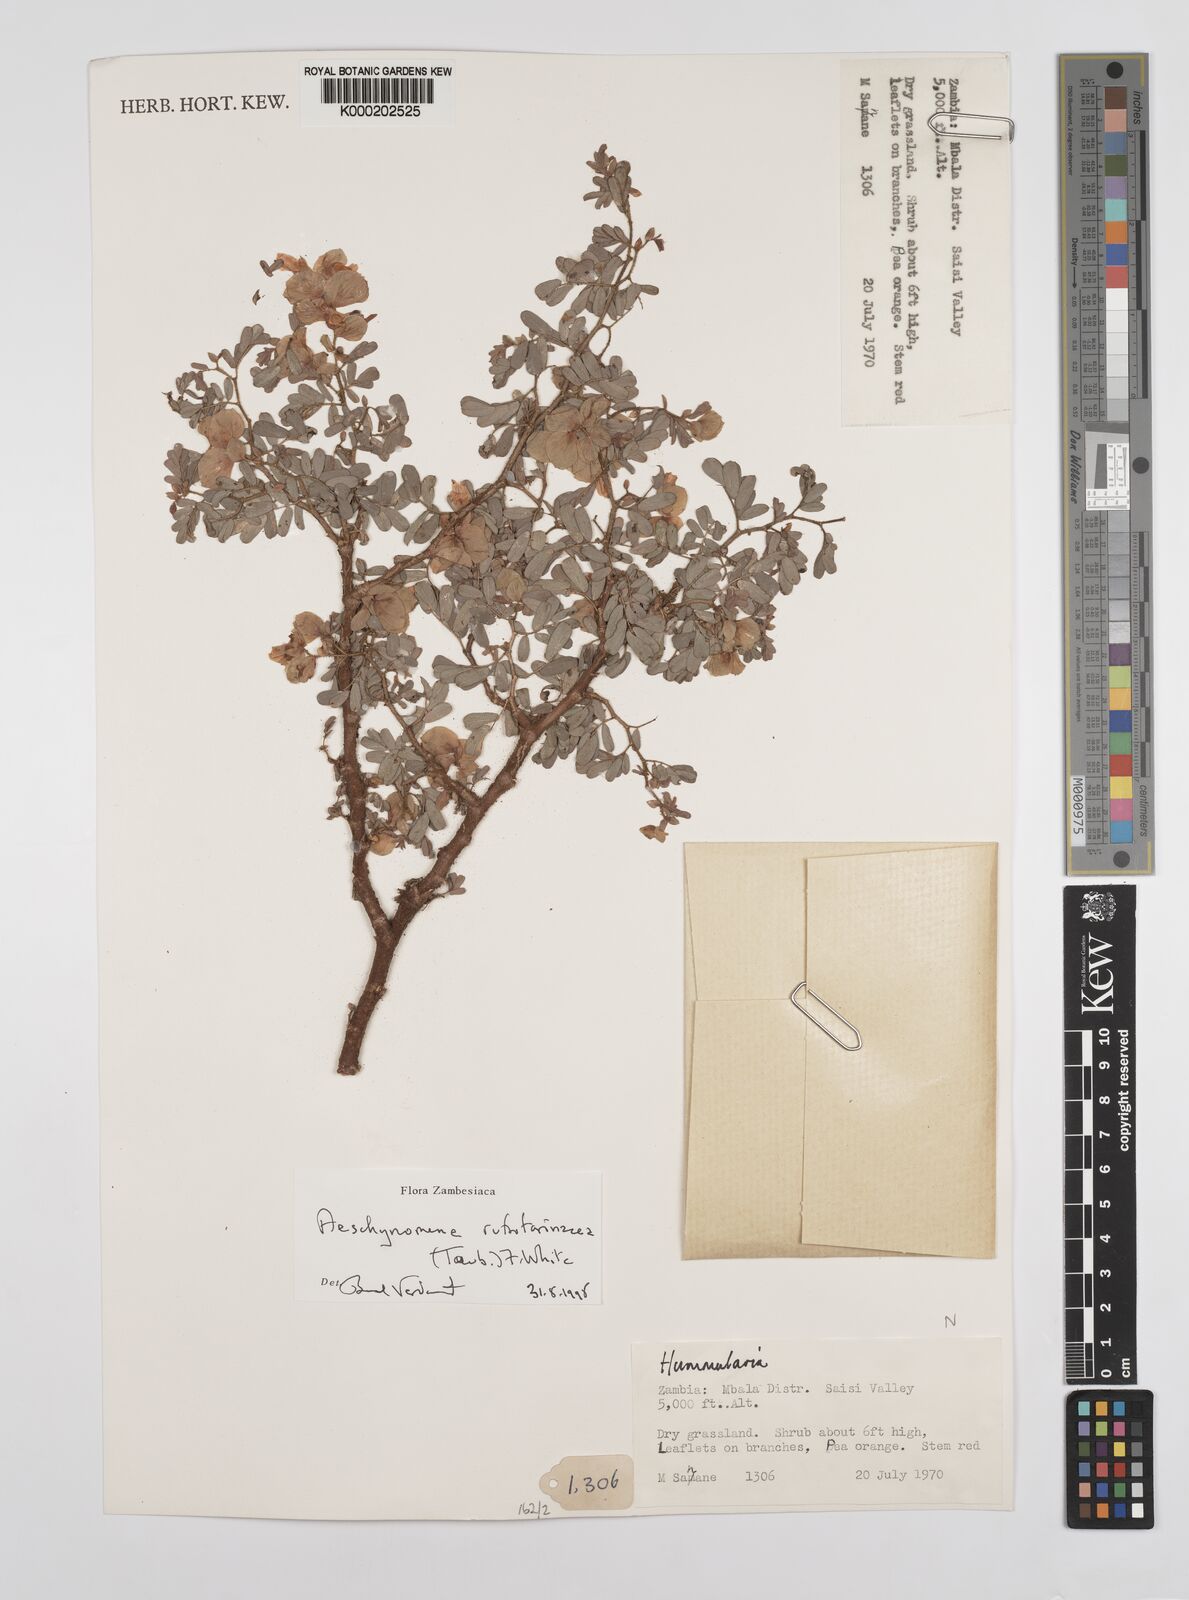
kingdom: Plantae
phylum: Tracheophyta
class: Magnoliopsida
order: Fabales
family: Fabaceae
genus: Aeschynomene
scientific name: Aeschynomene rubrofarinacea
